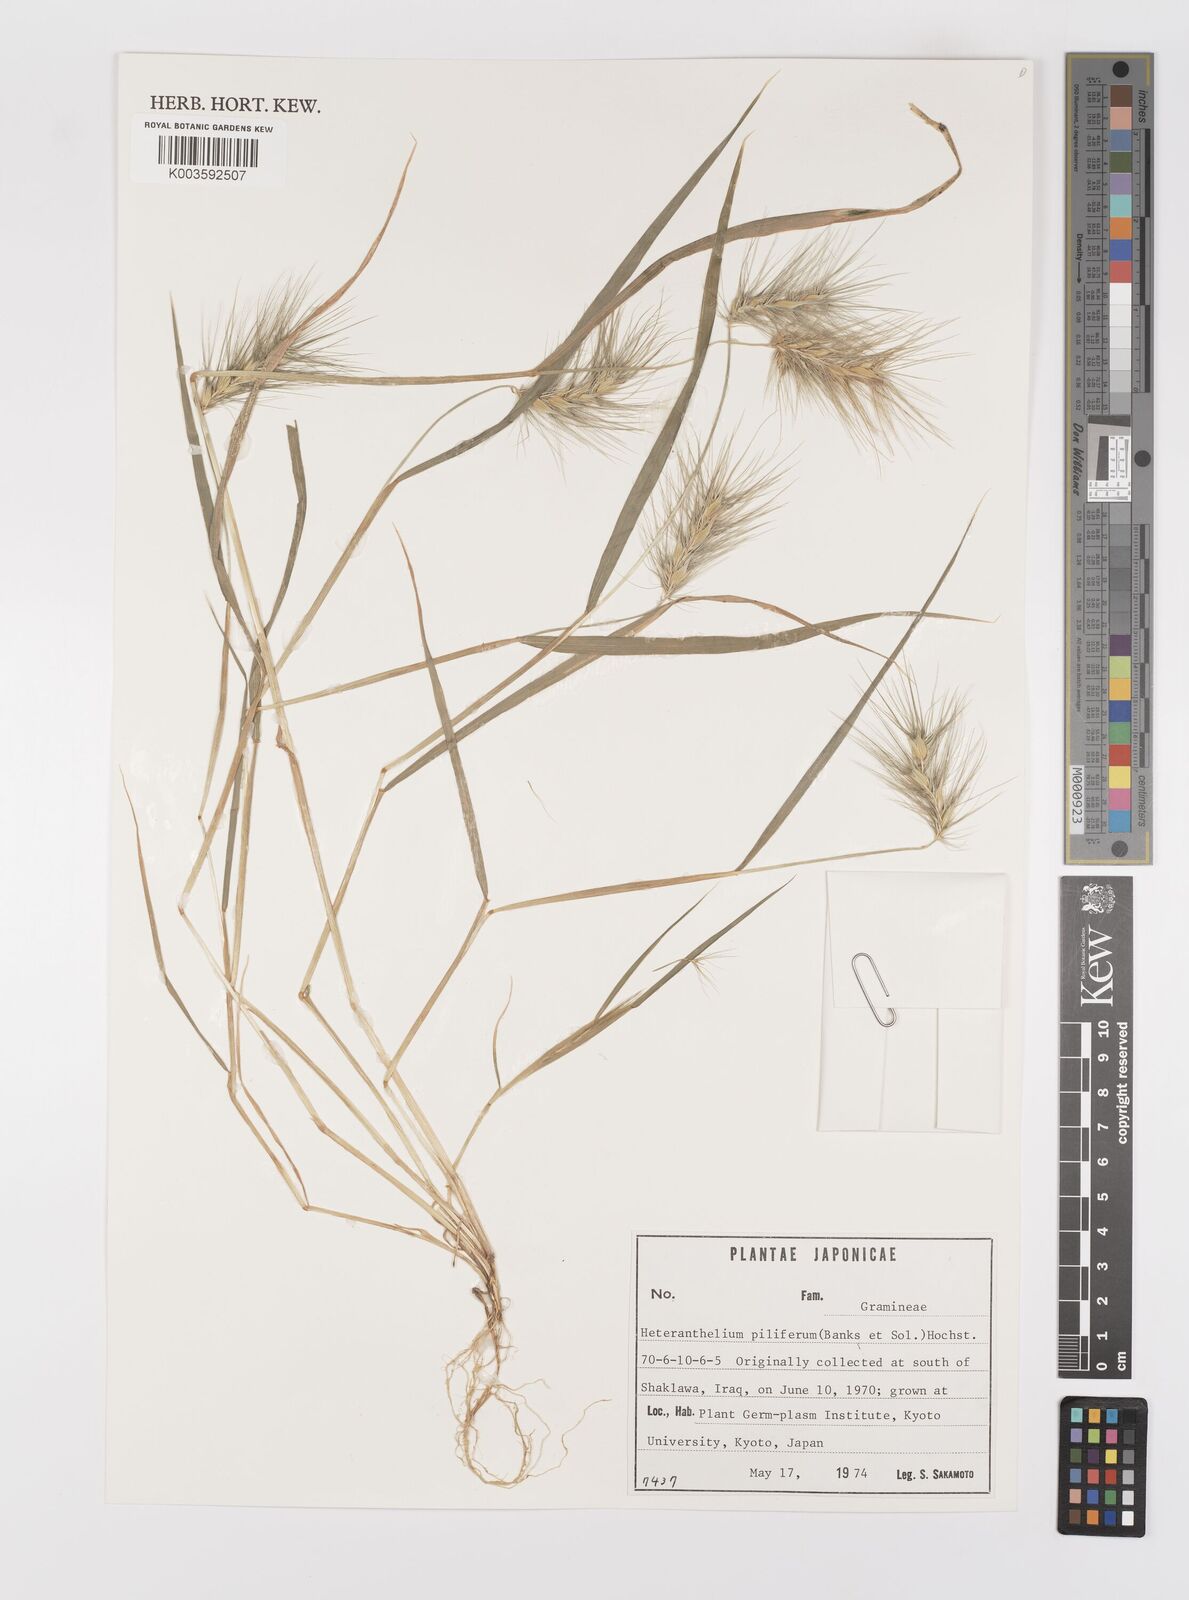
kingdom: Plantae
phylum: Tracheophyta
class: Liliopsida
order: Poales
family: Poaceae
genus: Heteranthelium
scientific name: Heteranthelium piliferum
